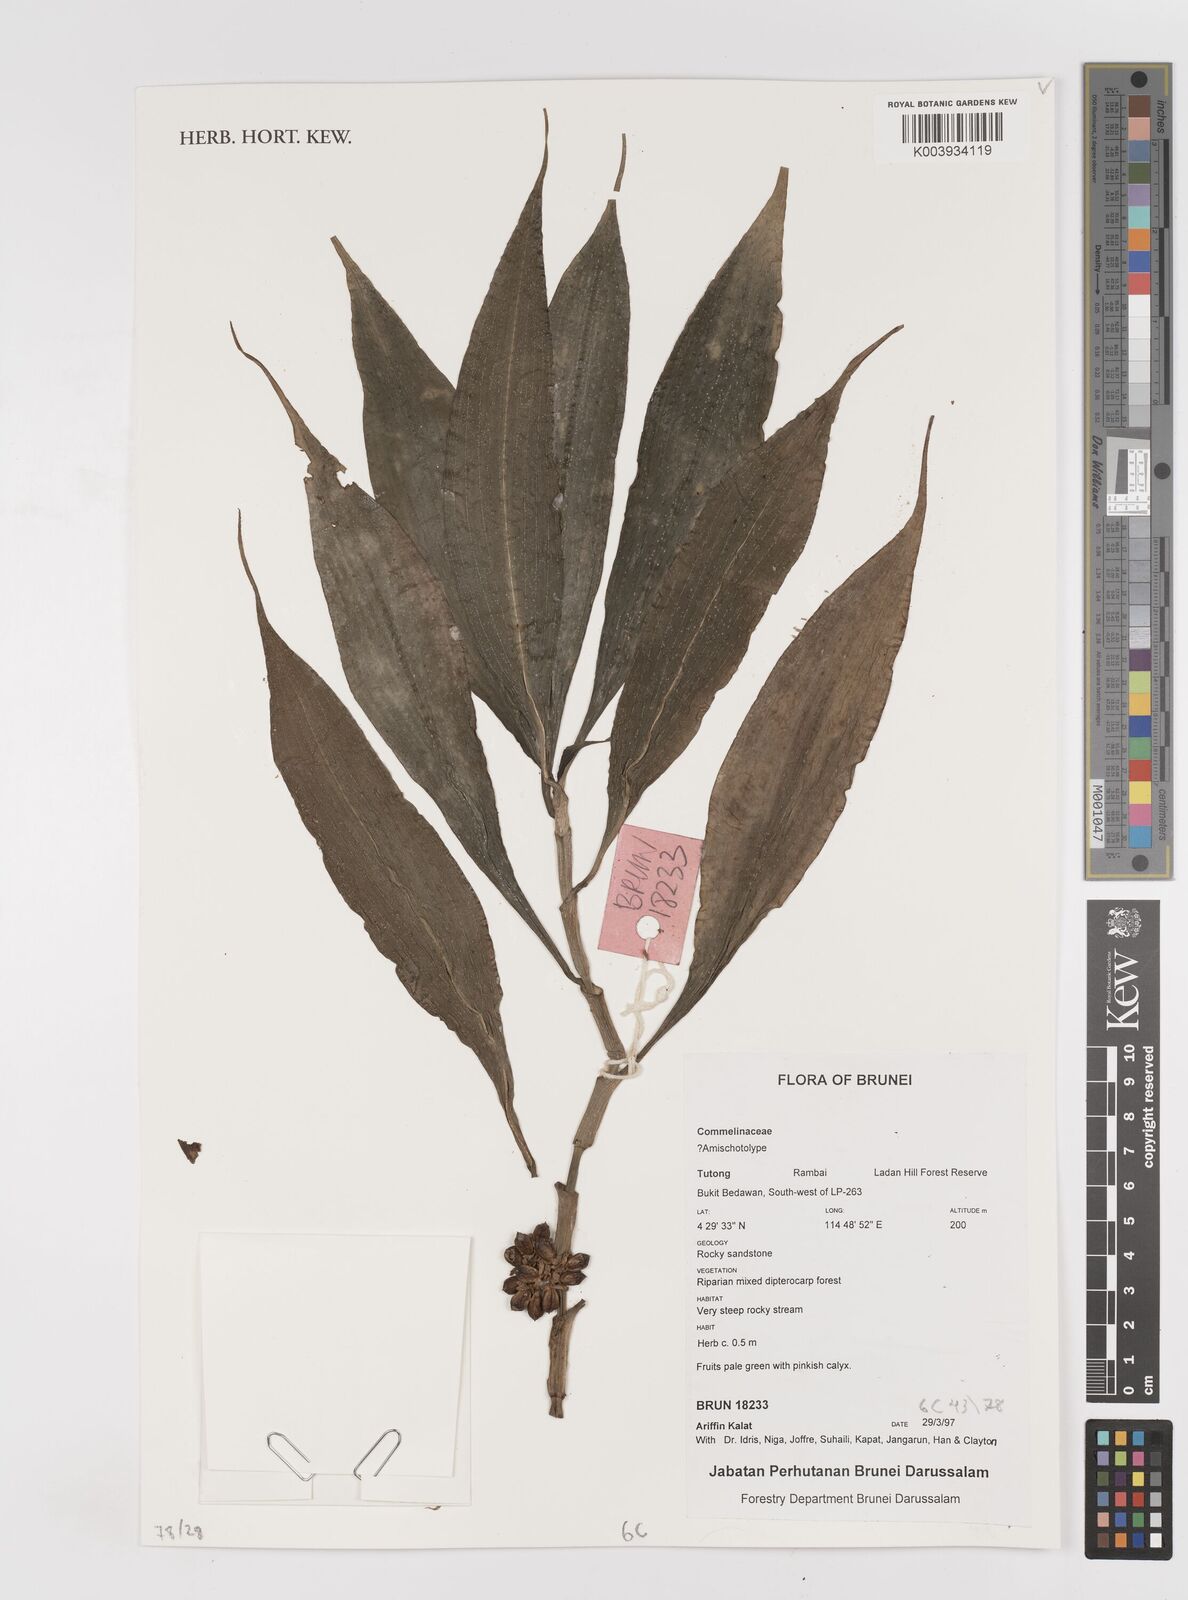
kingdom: Plantae
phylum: Tracheophyta
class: Liliopsida
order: Commelinales
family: Commelinaceae
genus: Amischotolype
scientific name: Amischotolype
